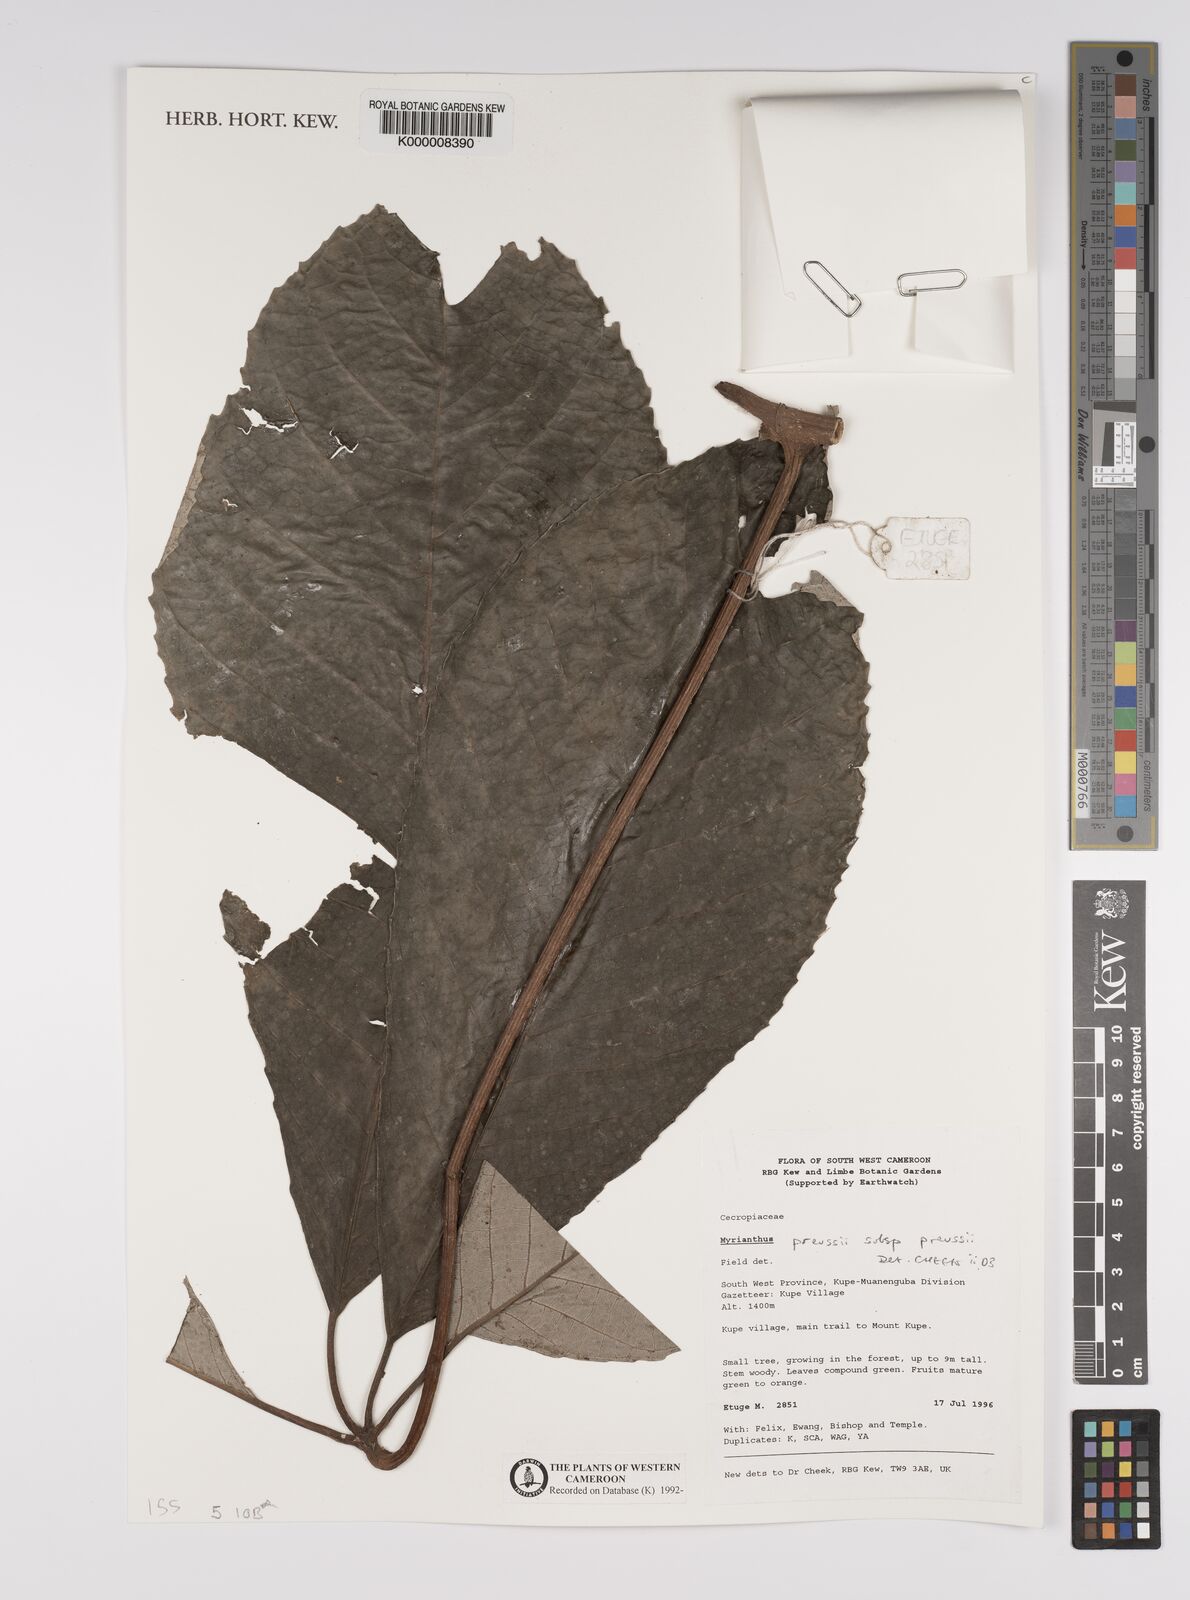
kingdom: Plantae
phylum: Tracheophyta
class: Magnoliopsida
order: Rosales
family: Urticaceae
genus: Myrianthus
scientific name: Myrianthus preussii
